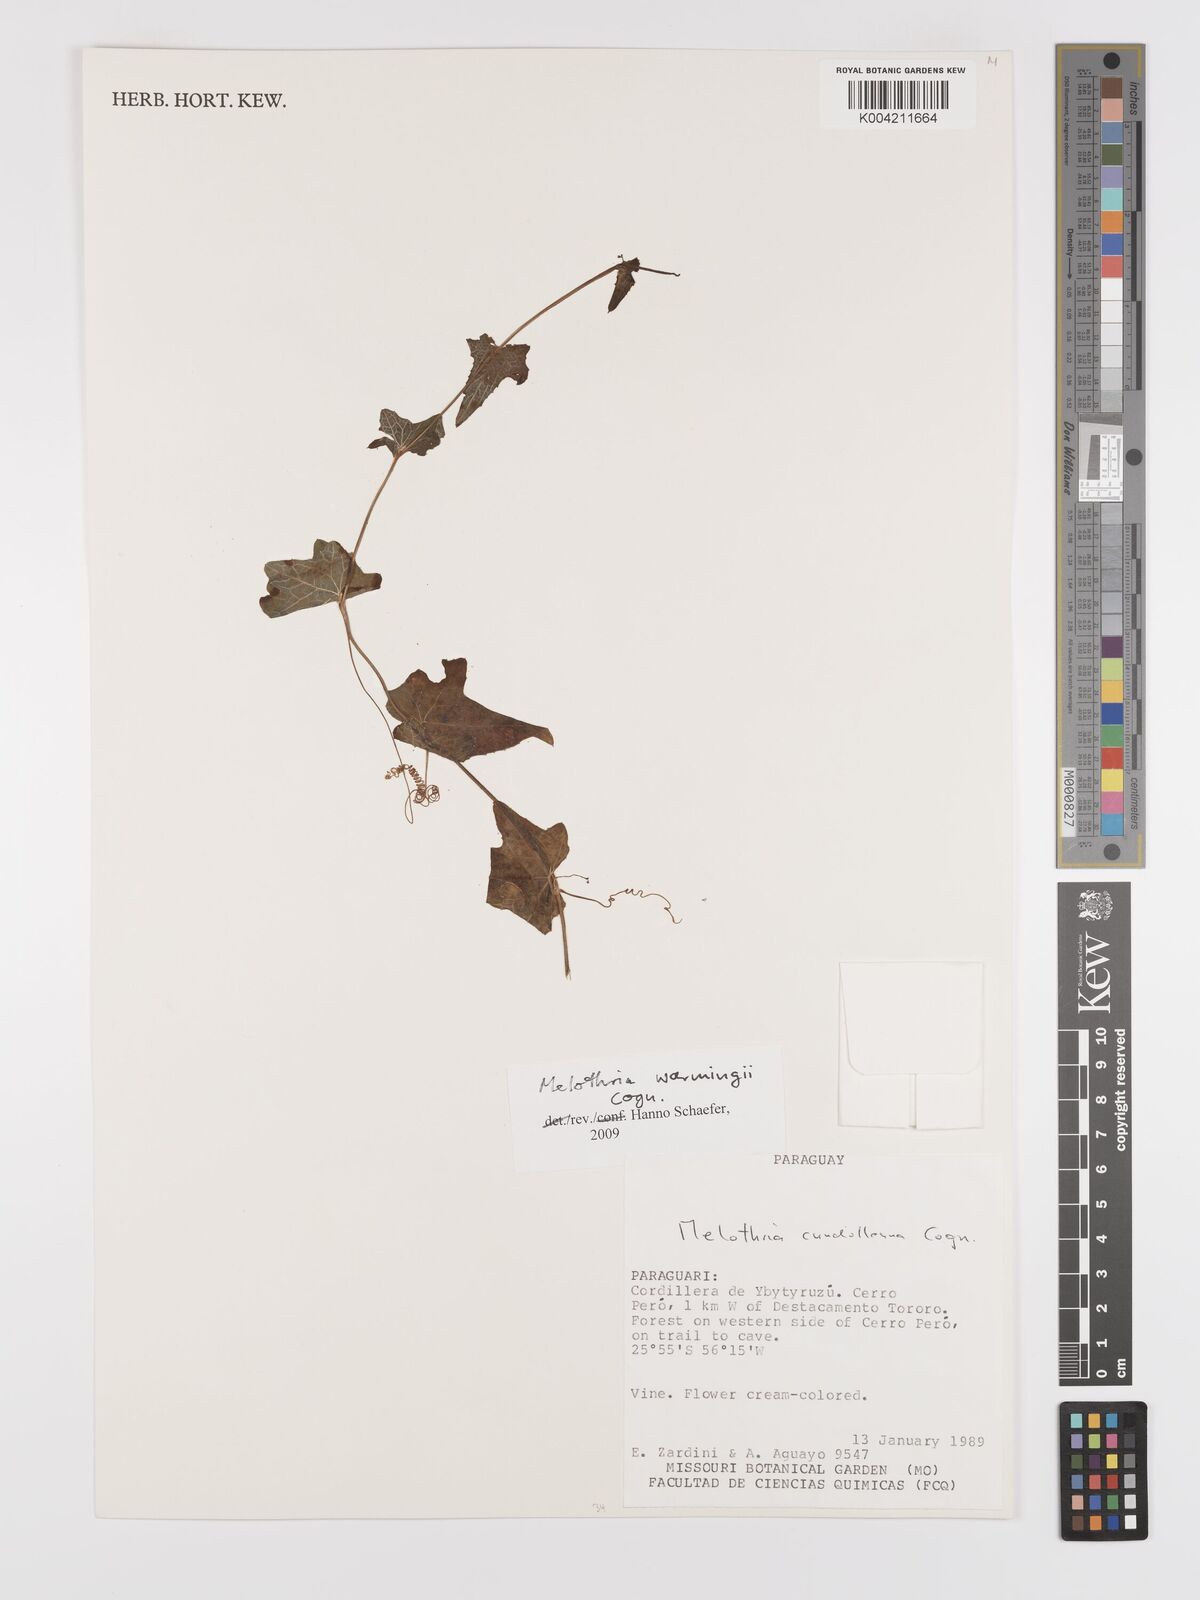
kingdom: Plantae
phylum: Tracheophyta
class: Magnoliopsida
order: Cucurbitales
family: Cucurbitaceae
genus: Melothria
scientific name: Melothria candolleana
